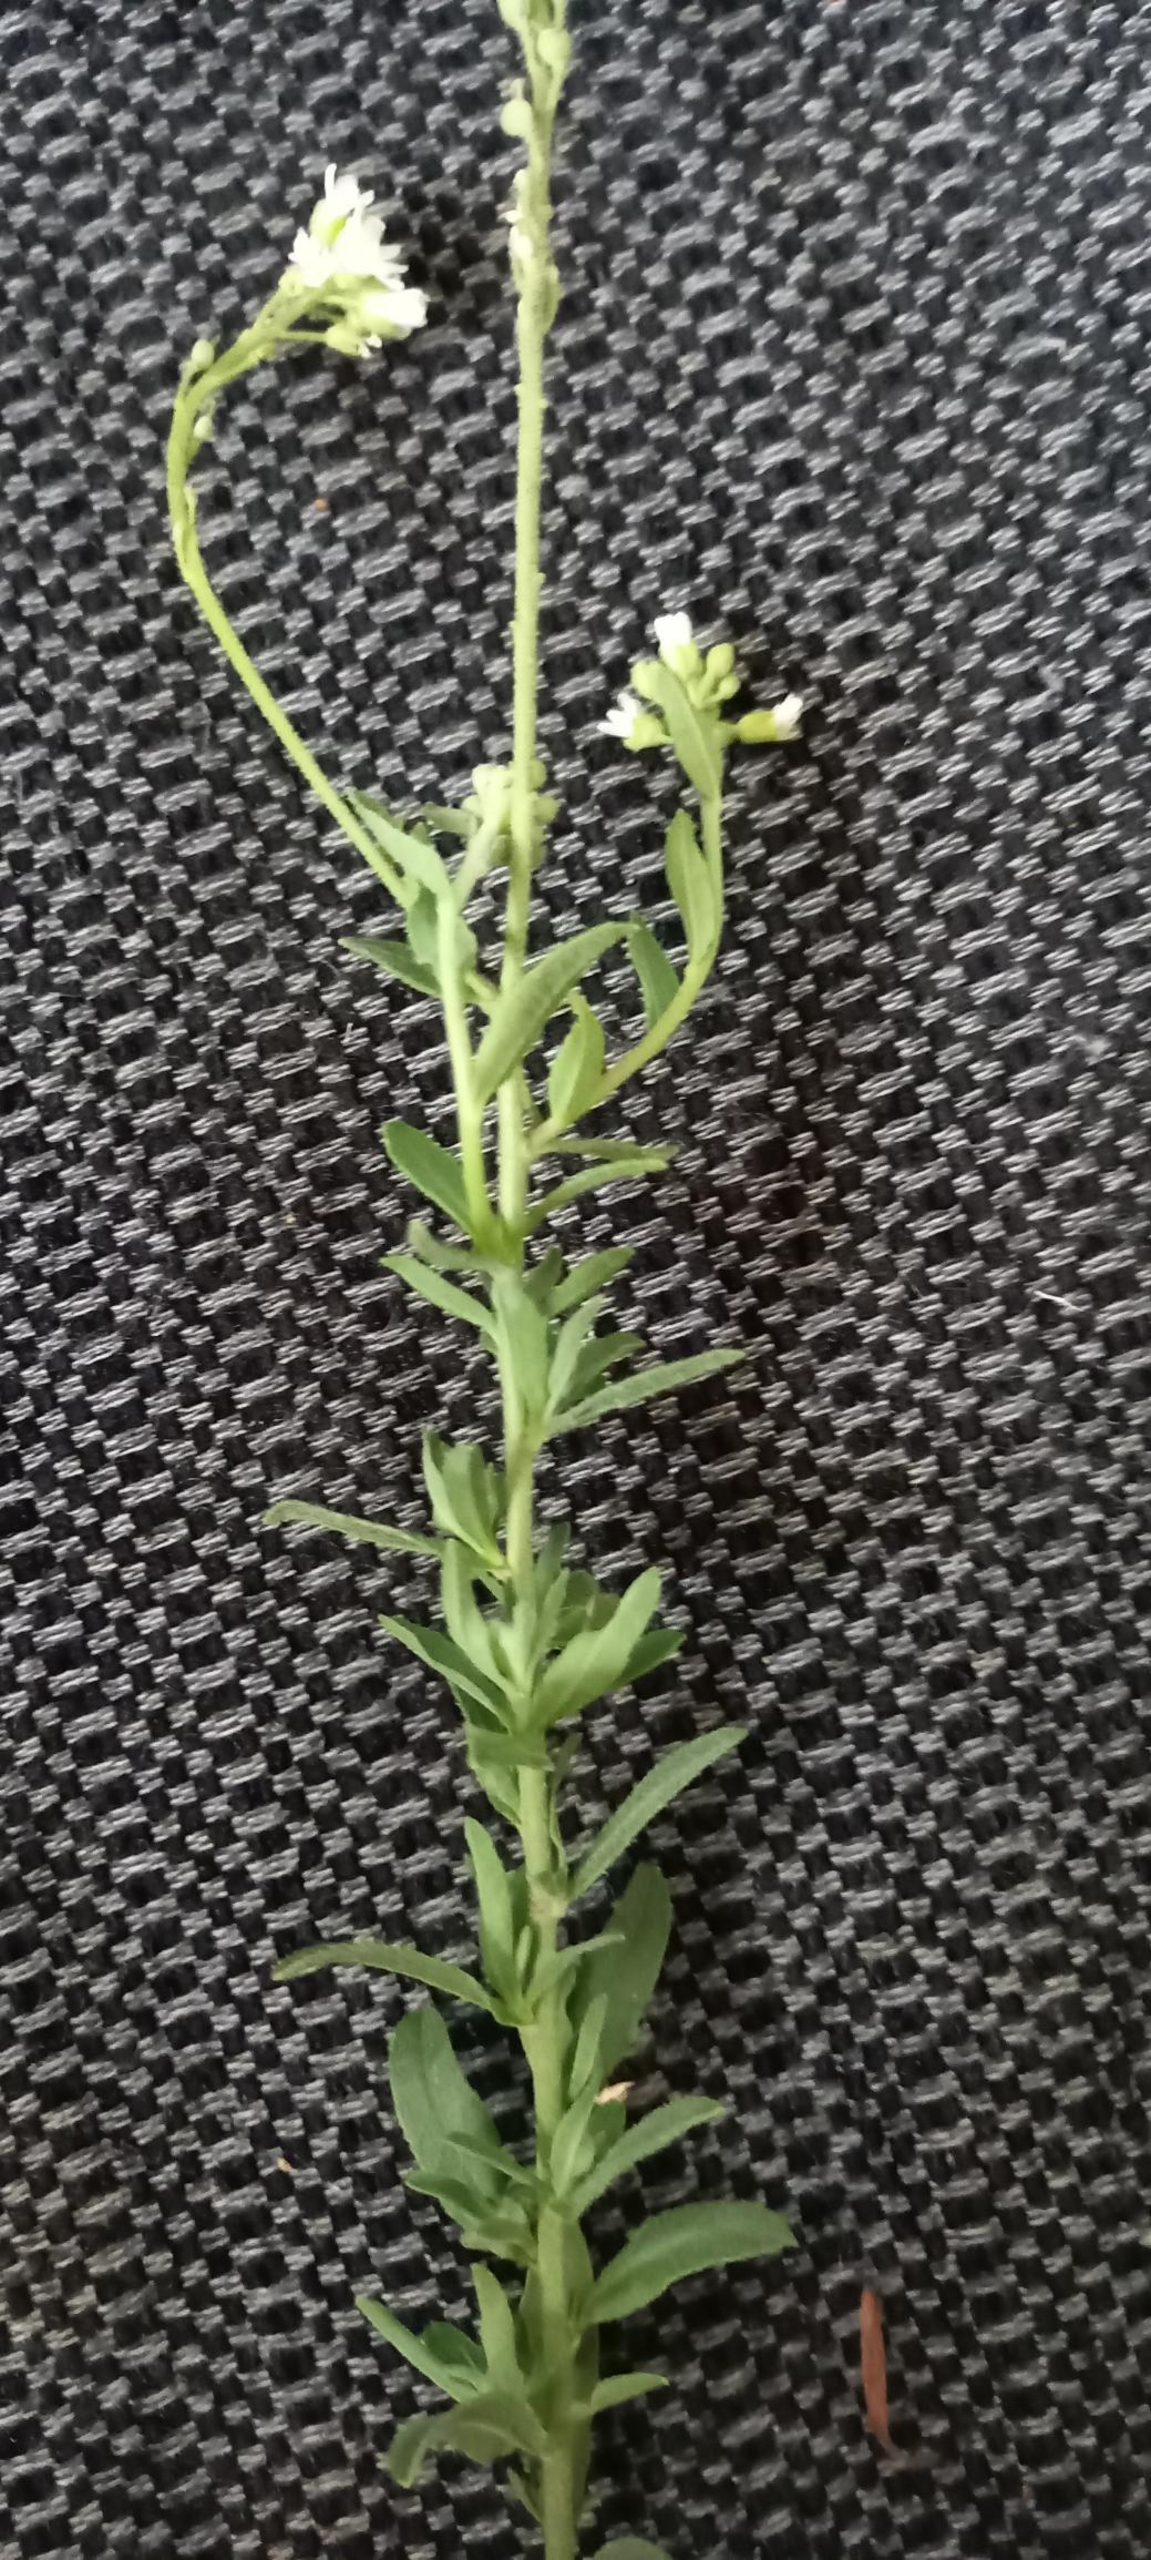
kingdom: Plantae
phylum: Tracheophyta
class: Magnoliopsida
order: Brassicales
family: Brassicaceae
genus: Berteroa
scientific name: Berteroa incana
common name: Kløvplade
